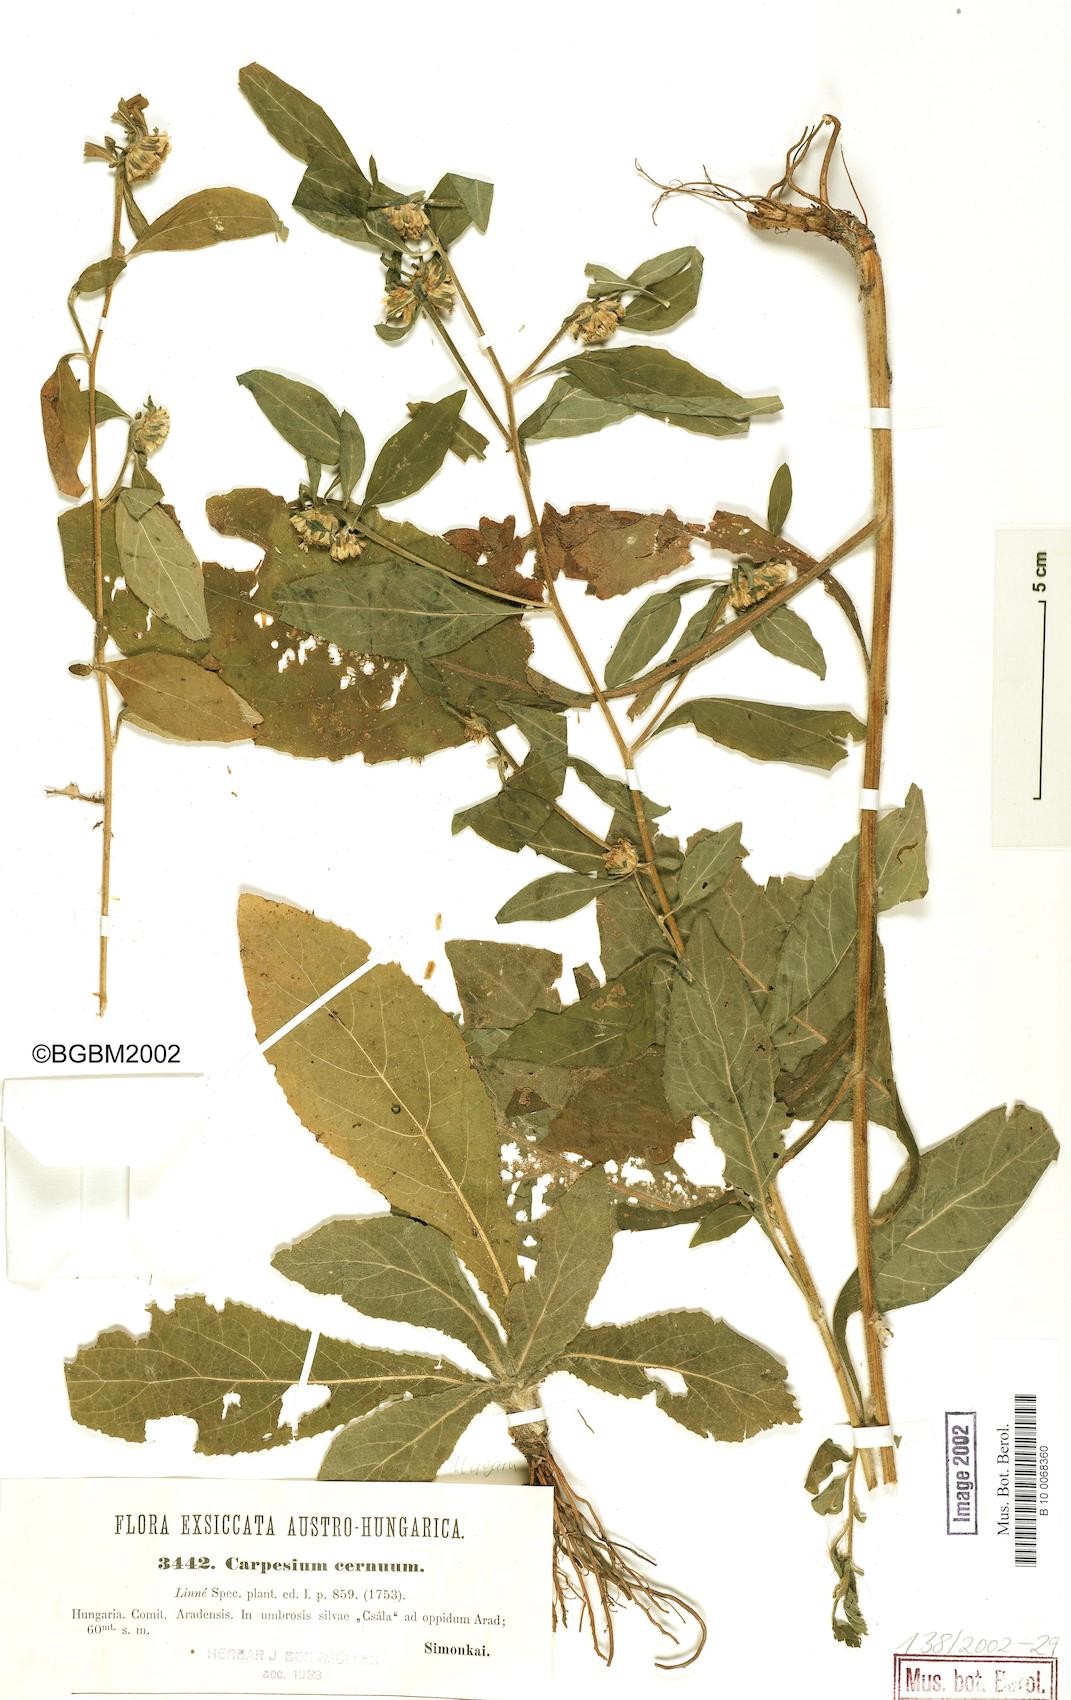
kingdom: Plantae
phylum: Tracheophyta
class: Magnoliopsida
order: Asterales
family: Asteraceae
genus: Carpesium
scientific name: Carpesium cernuum
